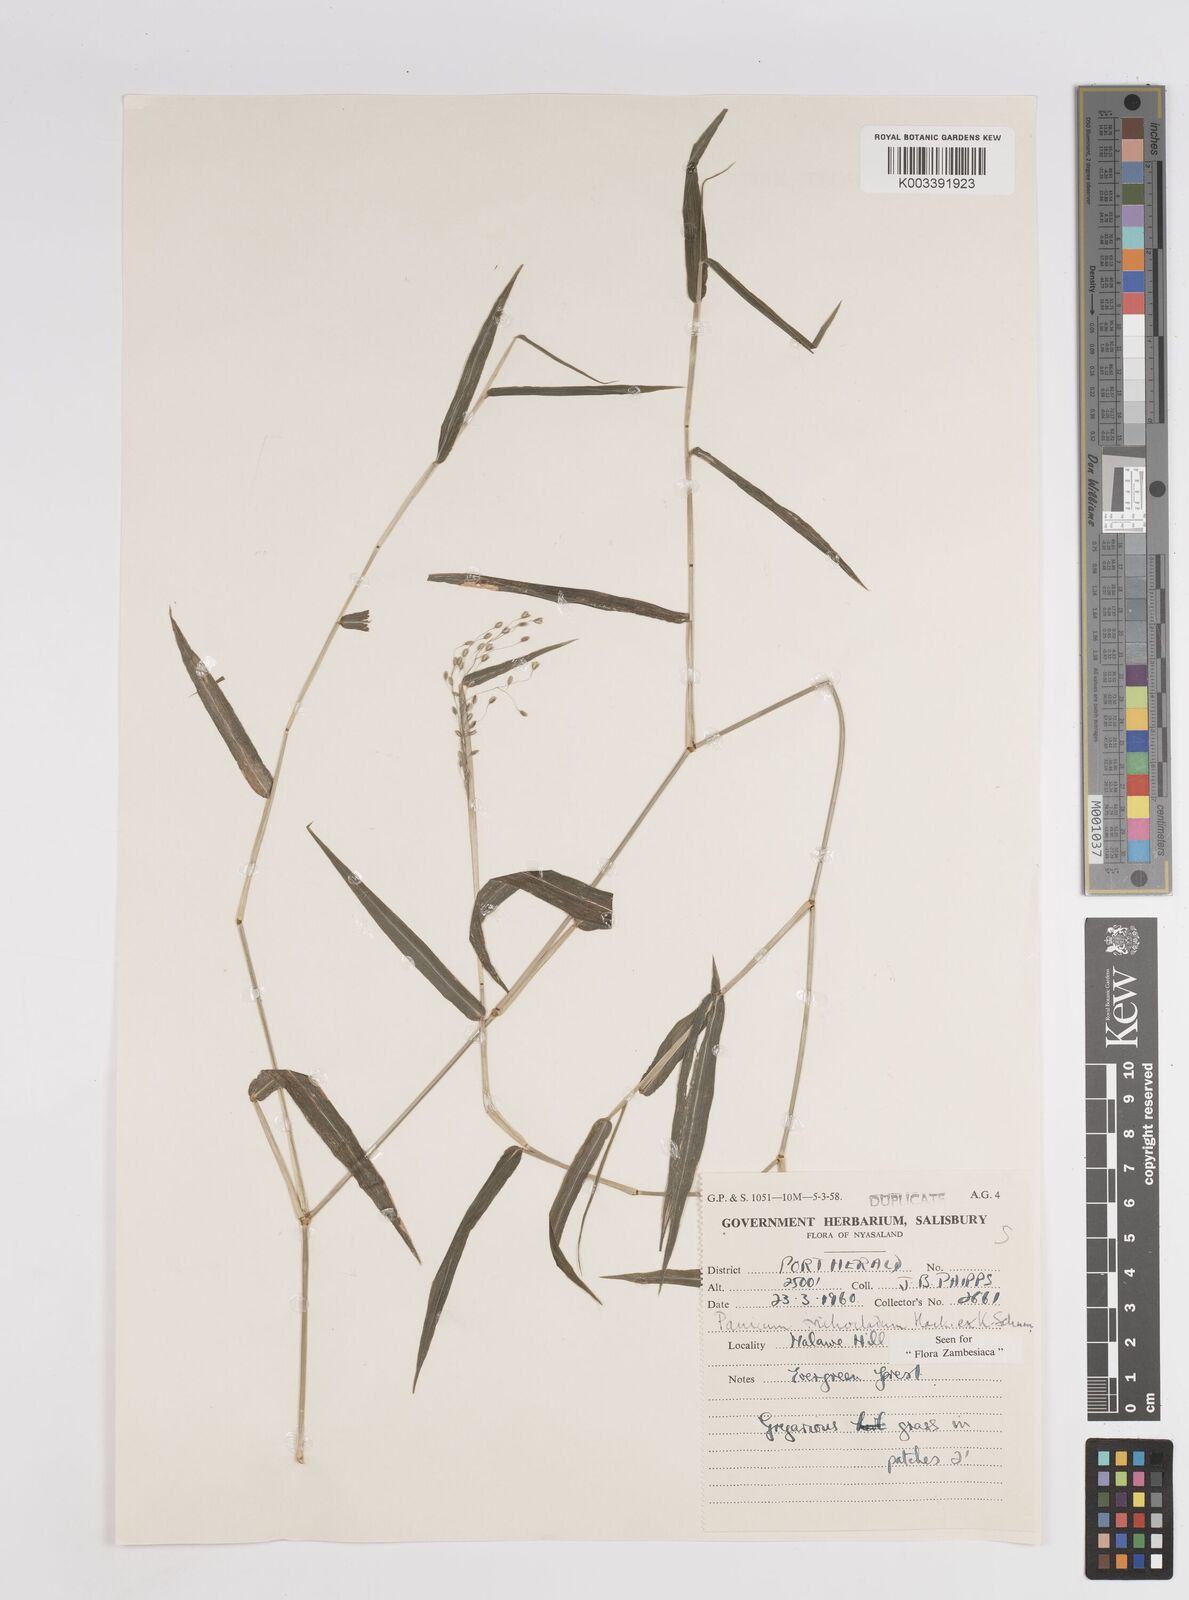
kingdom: Plantae
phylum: Tracheophyta
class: Liliopsida
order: Poales
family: Poaceae
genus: Panicum
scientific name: Panicum trichocladum
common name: Donkey grass
